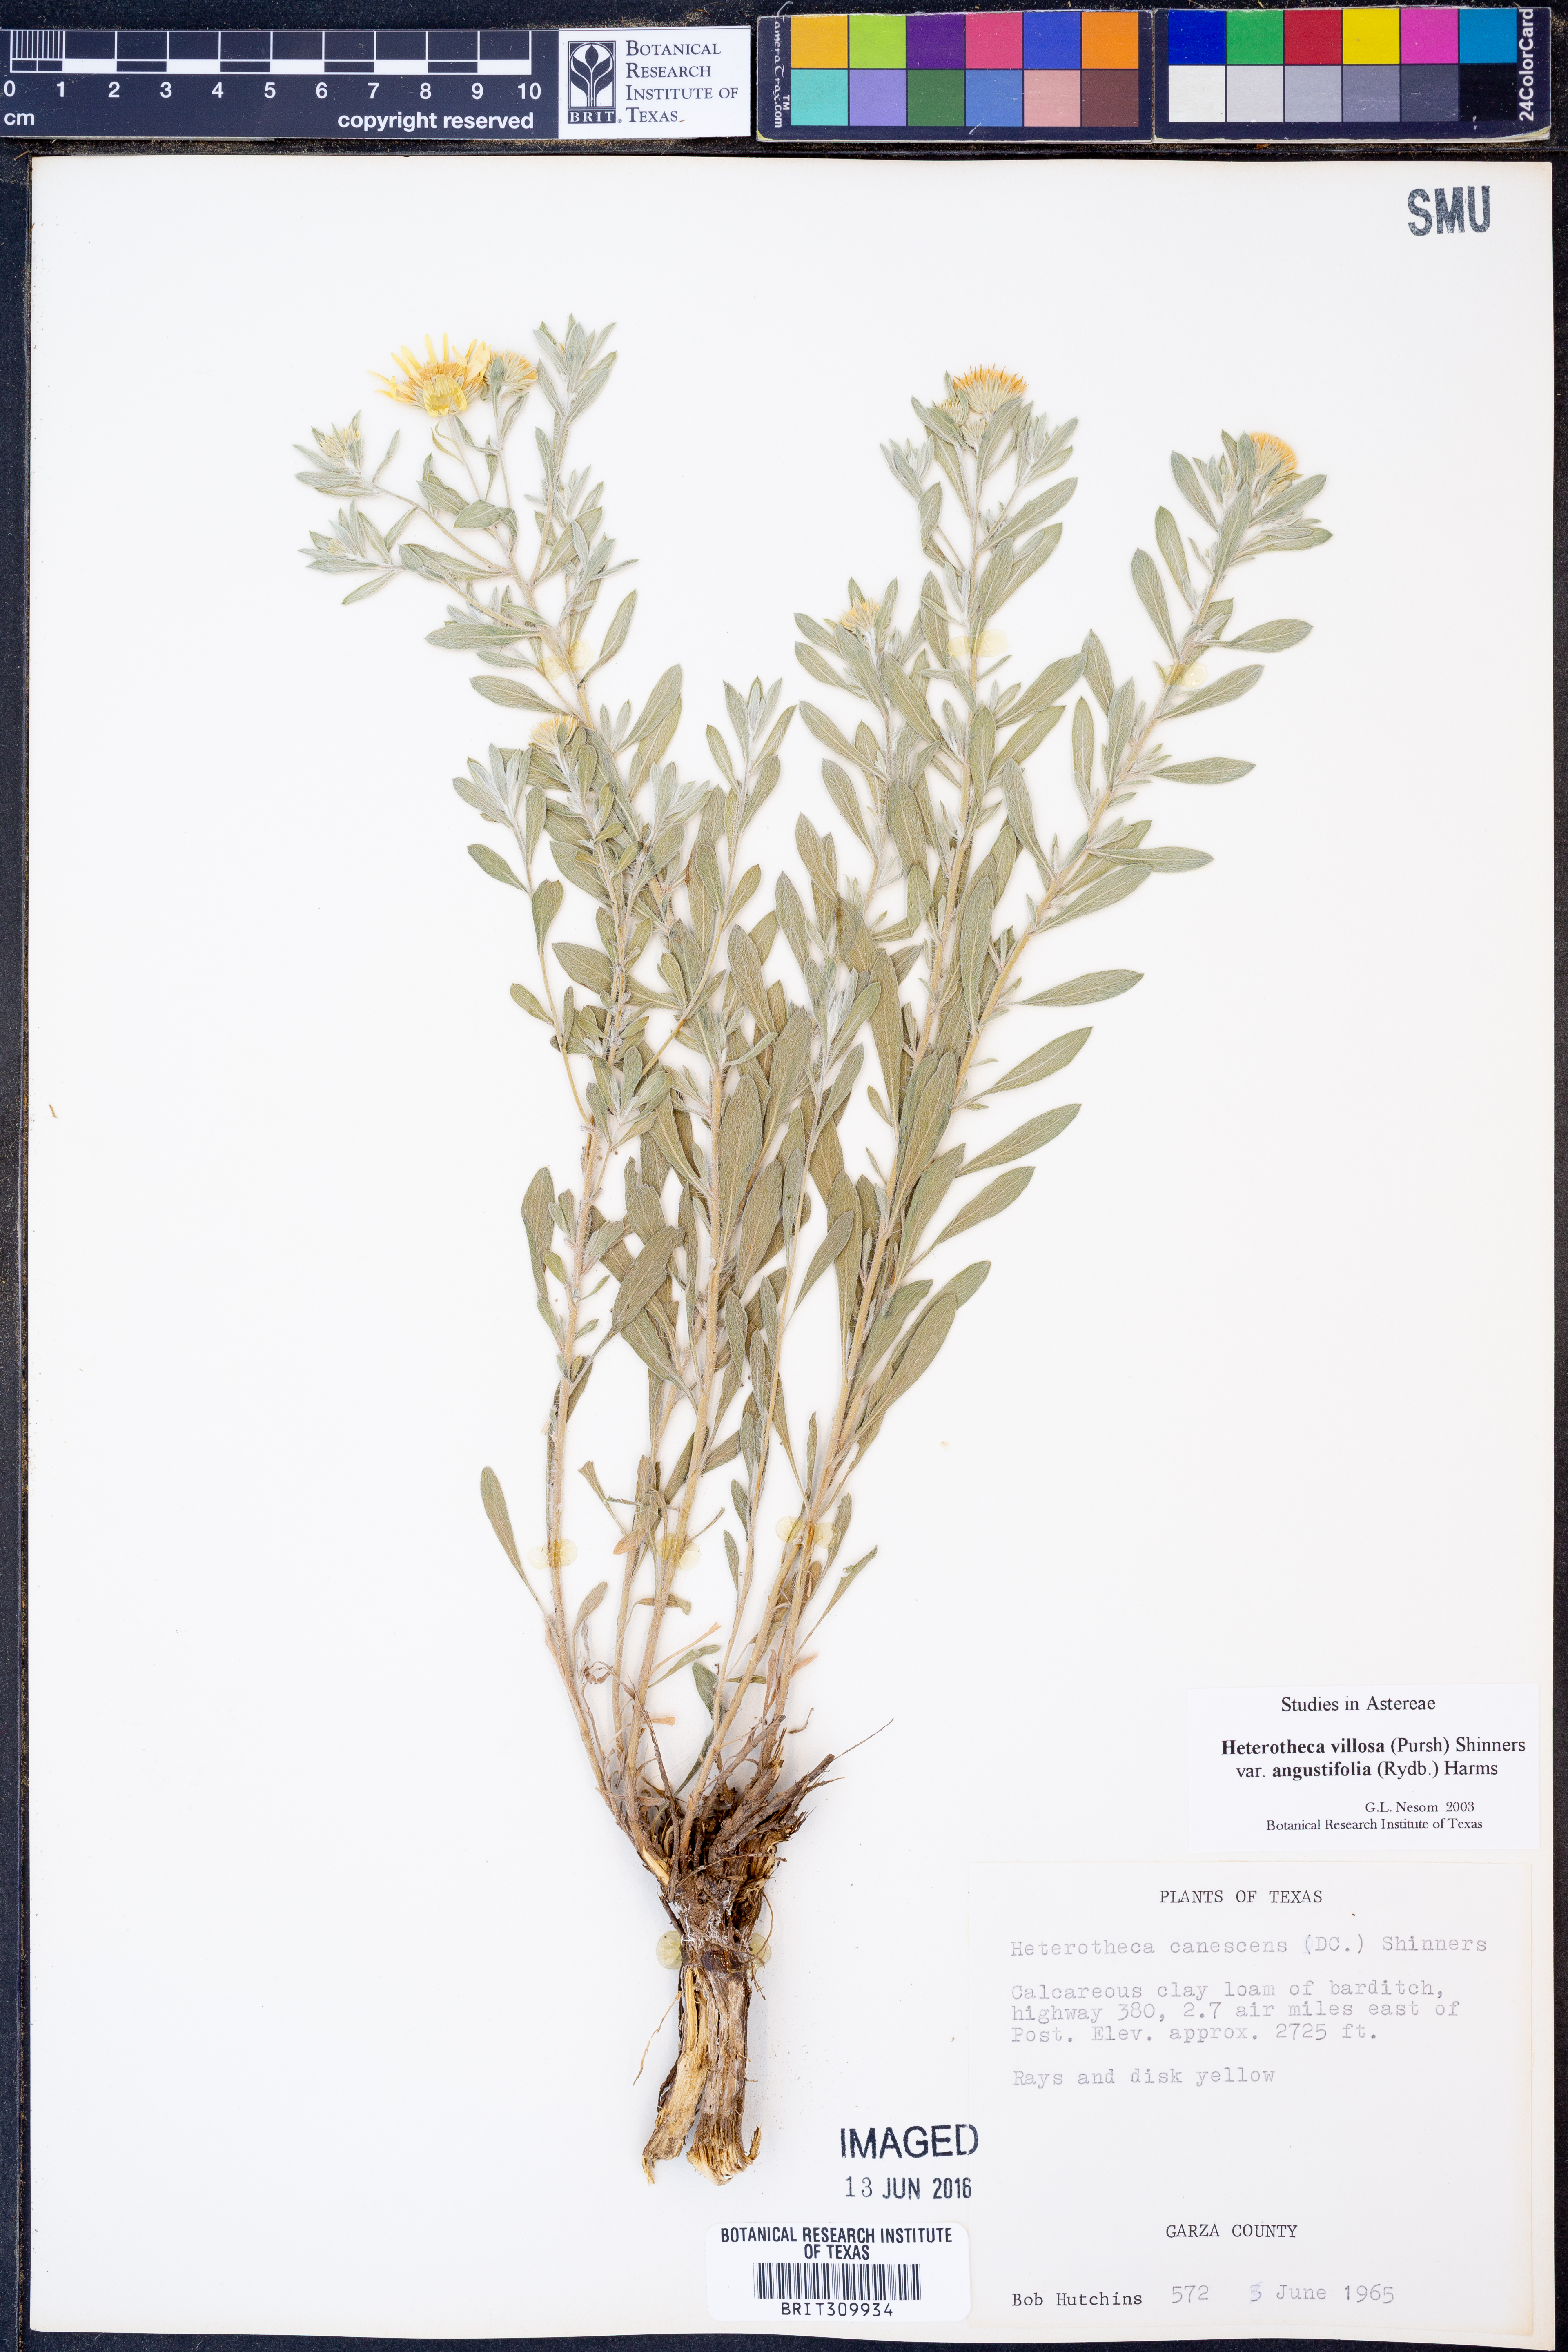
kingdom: Plantae
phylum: Tracheophyta
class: Magnoliopsida
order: Asterales
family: Asteraceae
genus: Heterotheca
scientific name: Heterotheca angustifolia
